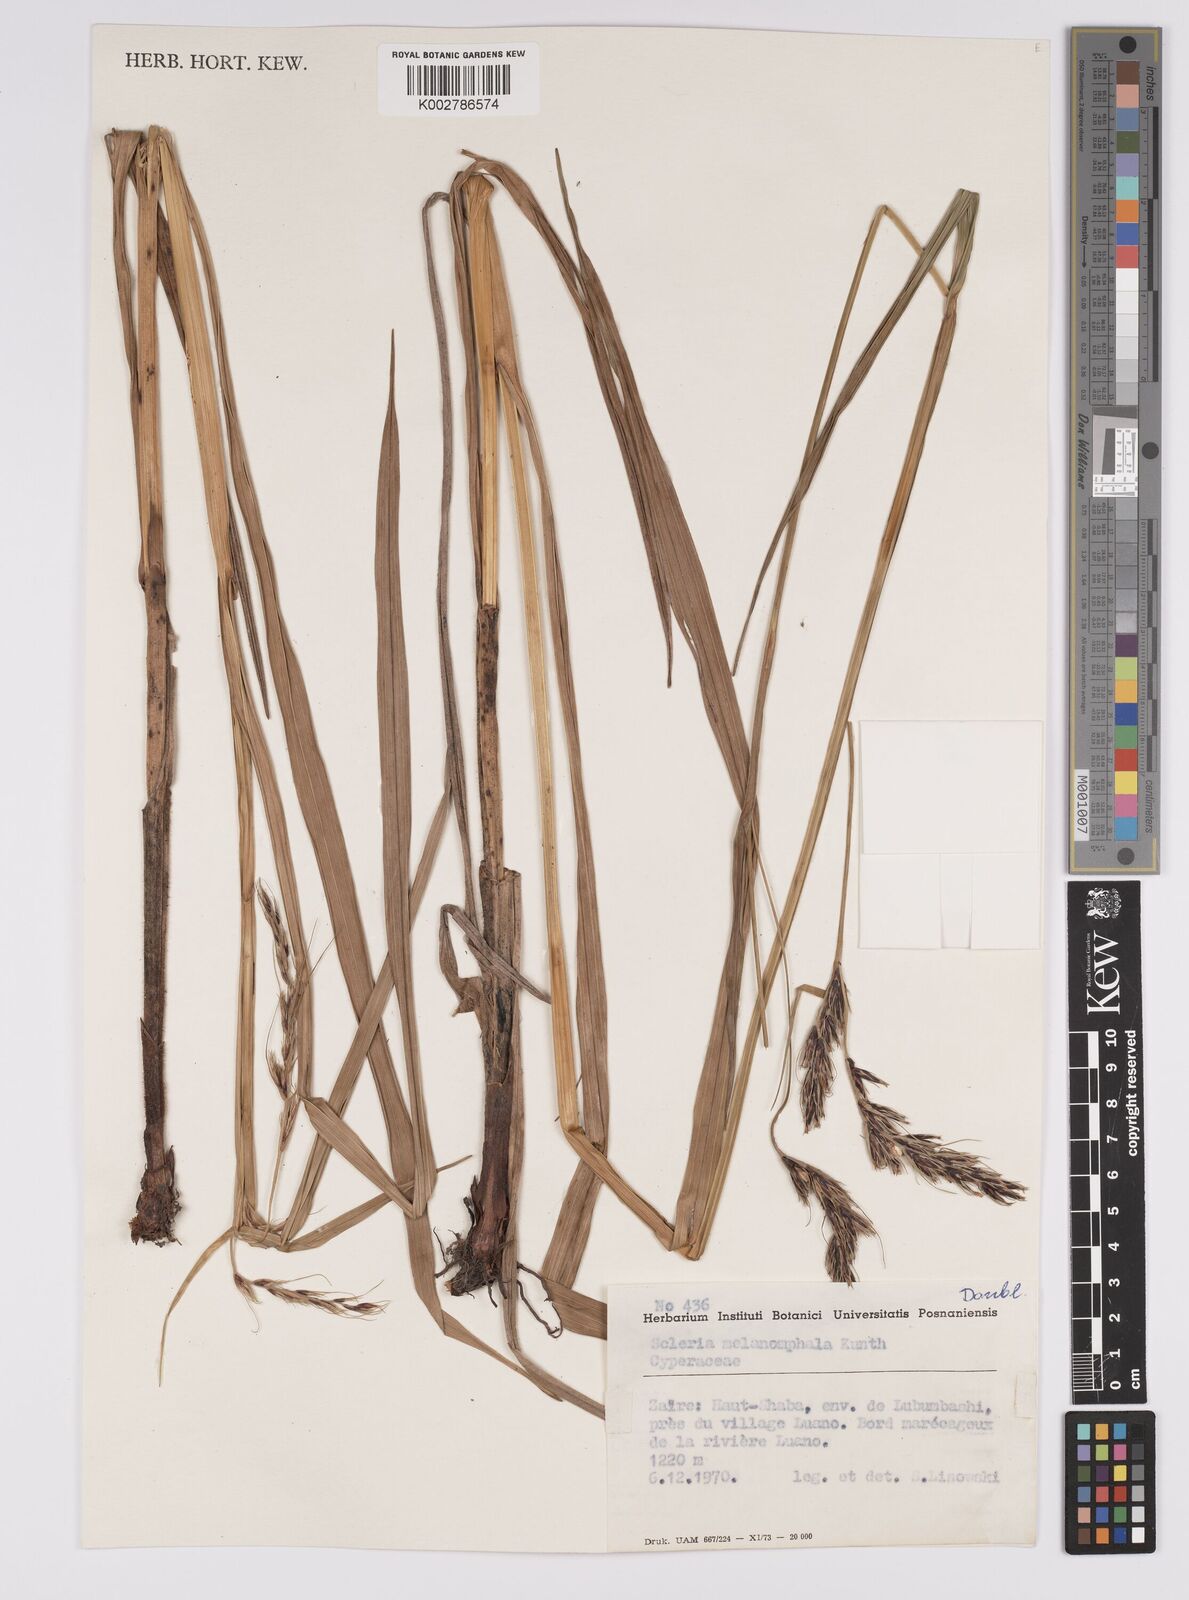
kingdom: Plantae
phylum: Tracheophyta
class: Liliopsida
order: Poales
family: Cyperaceae
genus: Scleria
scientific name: Scleria melanomphala
